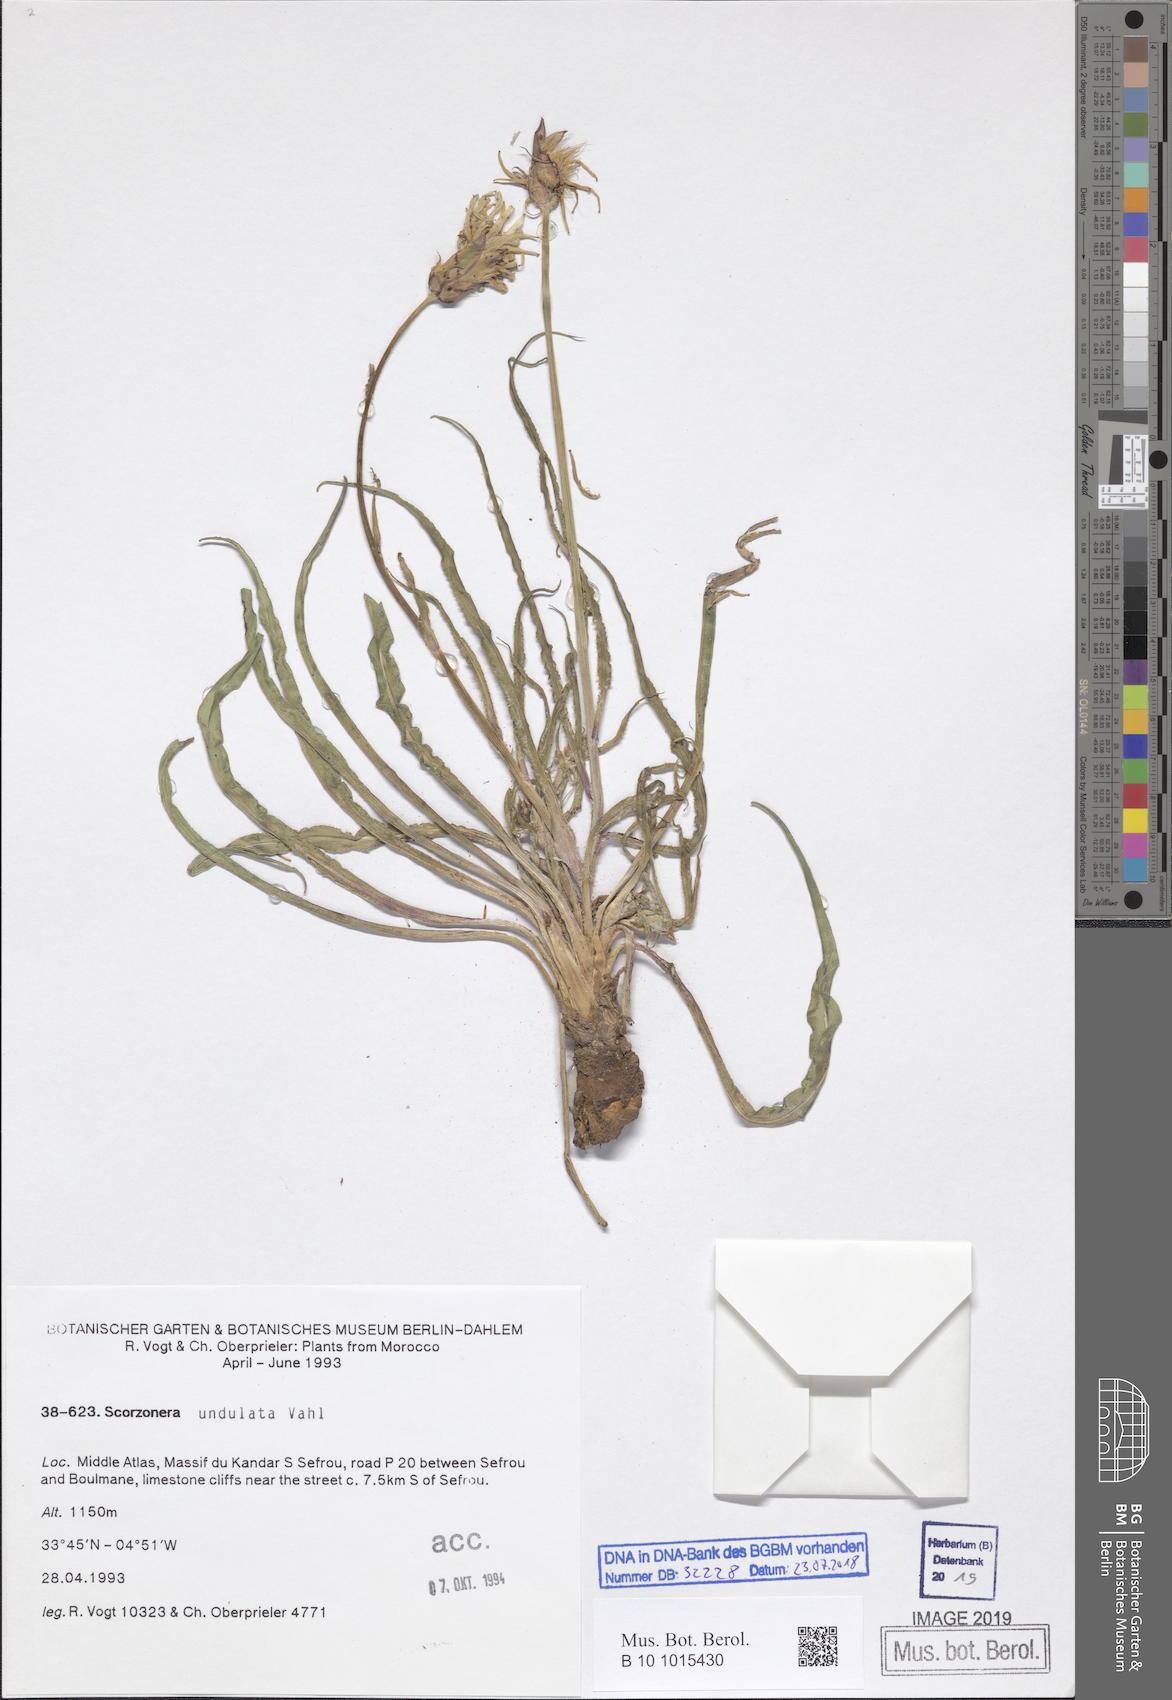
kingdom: Plantae
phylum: Tracheophyta
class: Magnoliopsida
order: Asterales
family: Asteraceae
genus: Pseudopodospermum
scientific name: Pseudopodospermum undulatum
